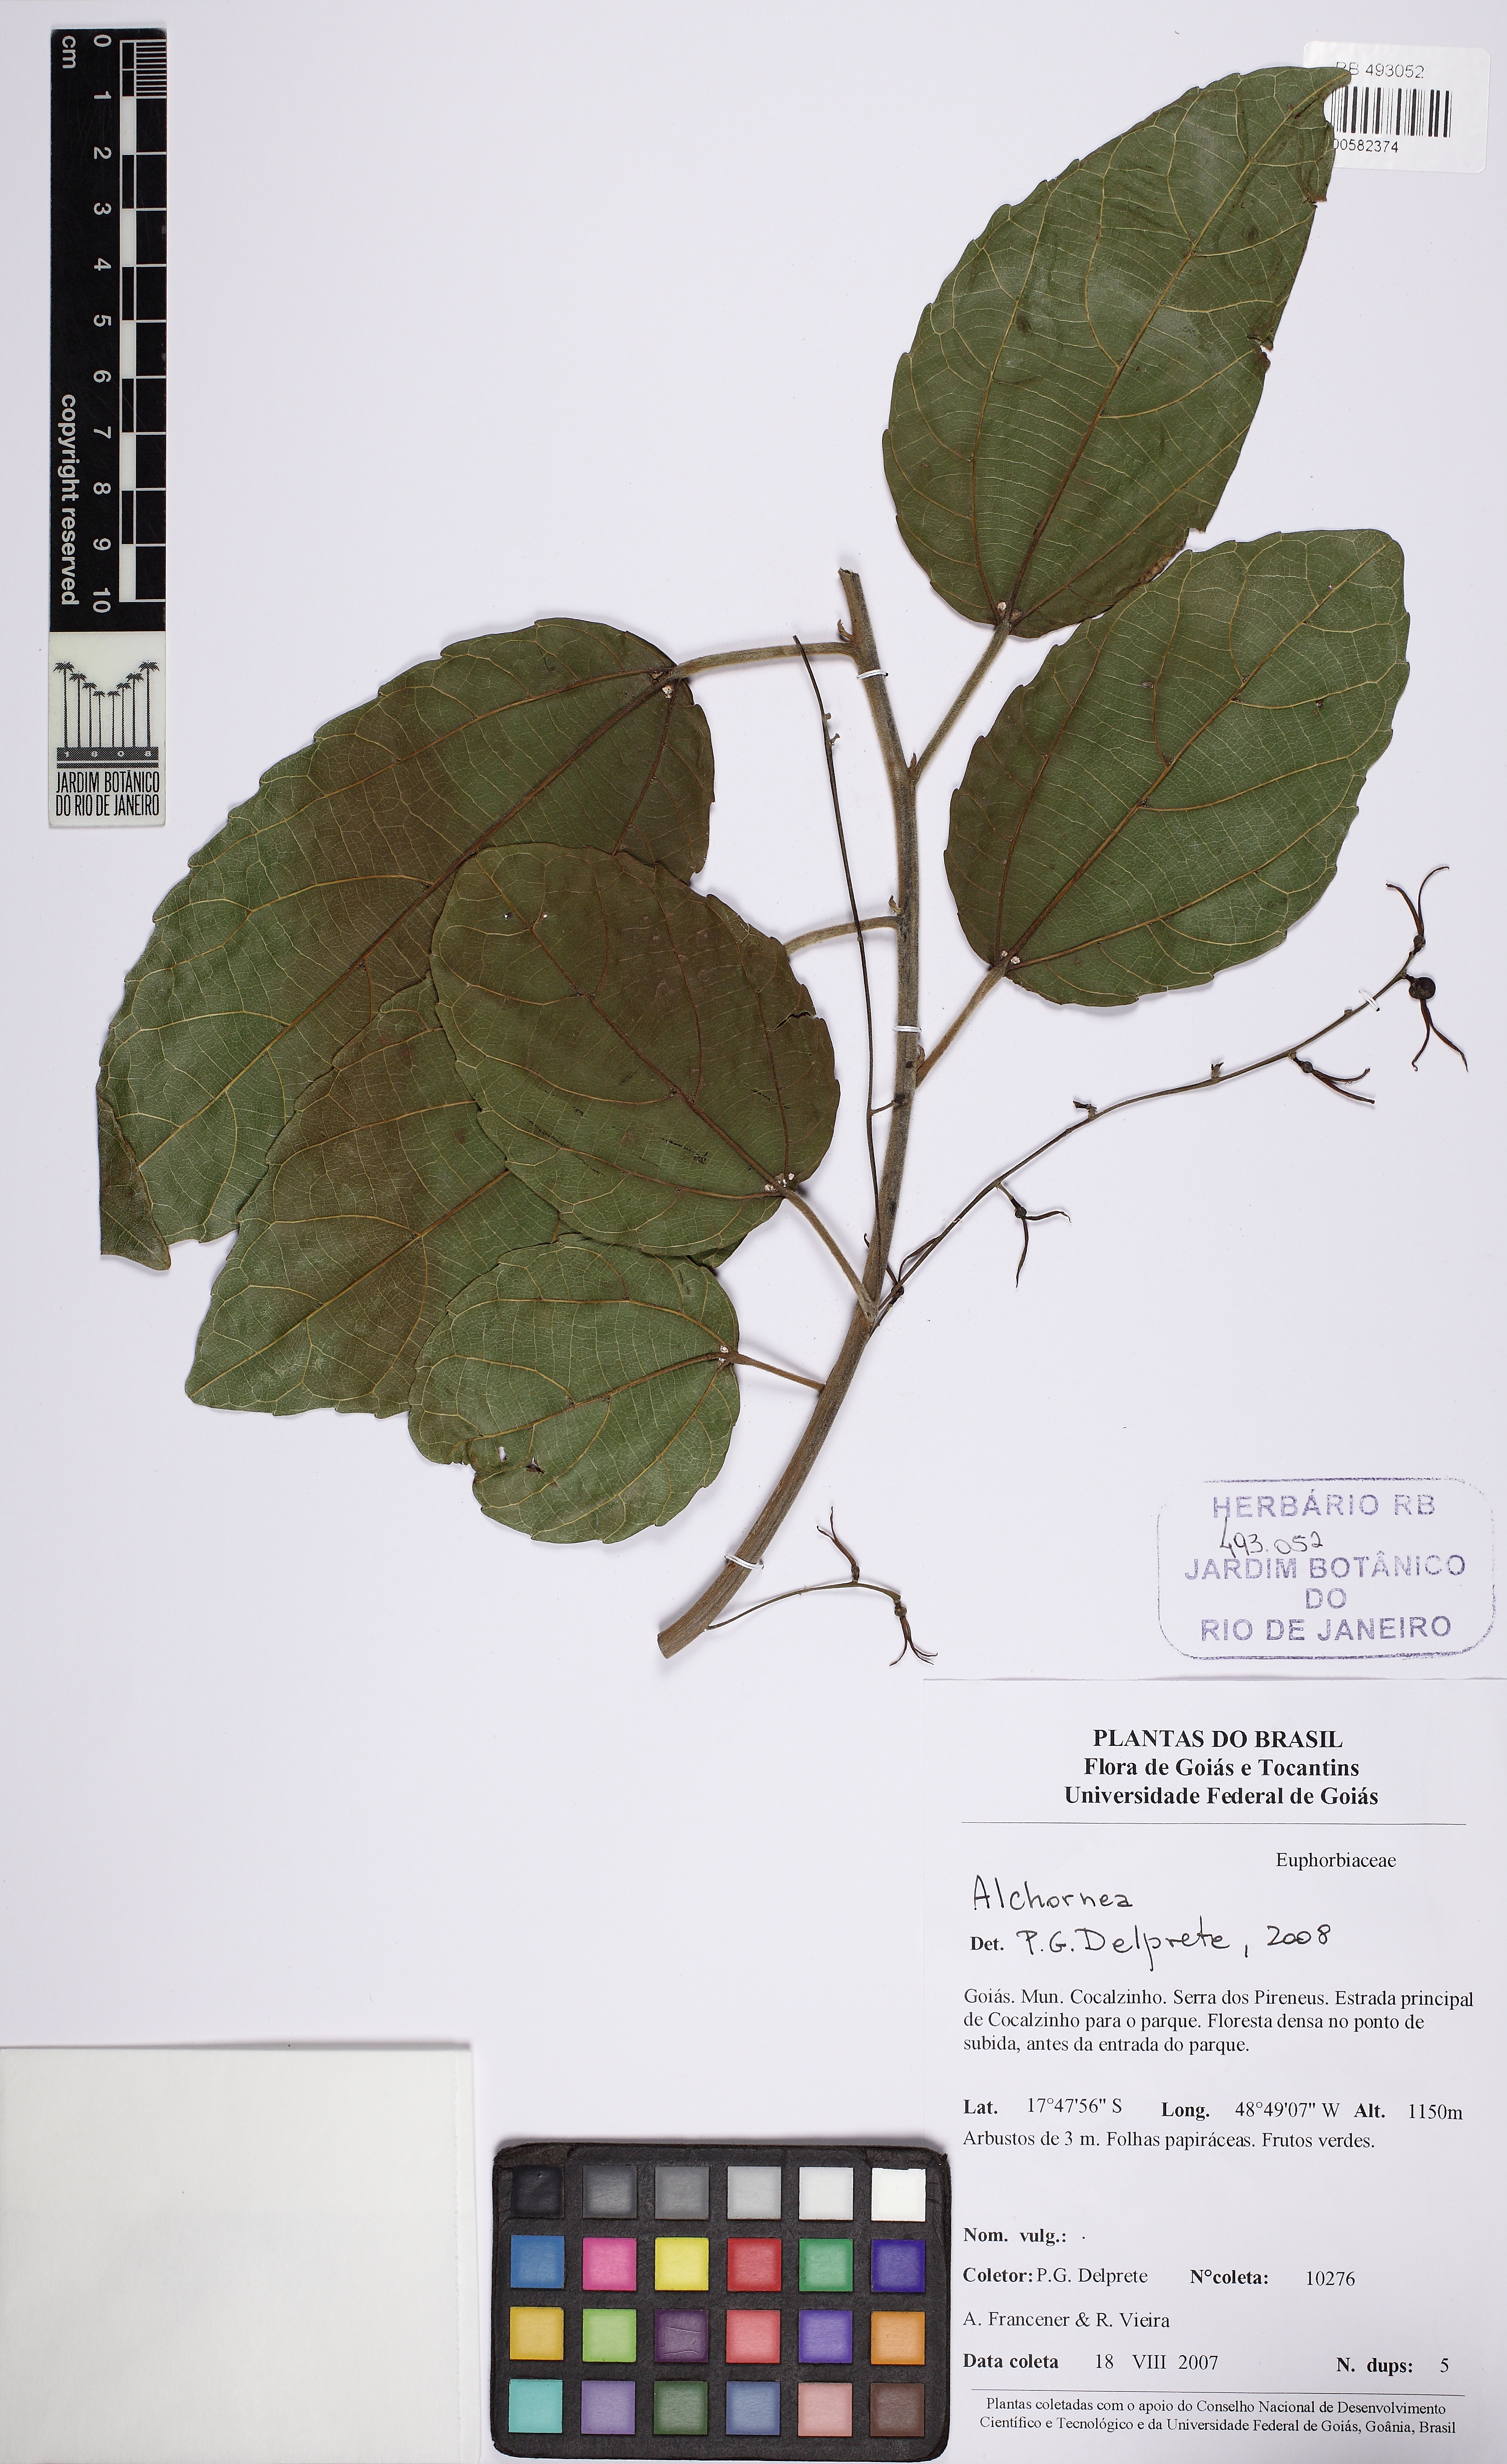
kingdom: Plantae
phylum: Tracheophyta
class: Magnoliopsida
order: Malpighiales
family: Euphorbiaceae
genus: Alchornea
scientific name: Alchornea
